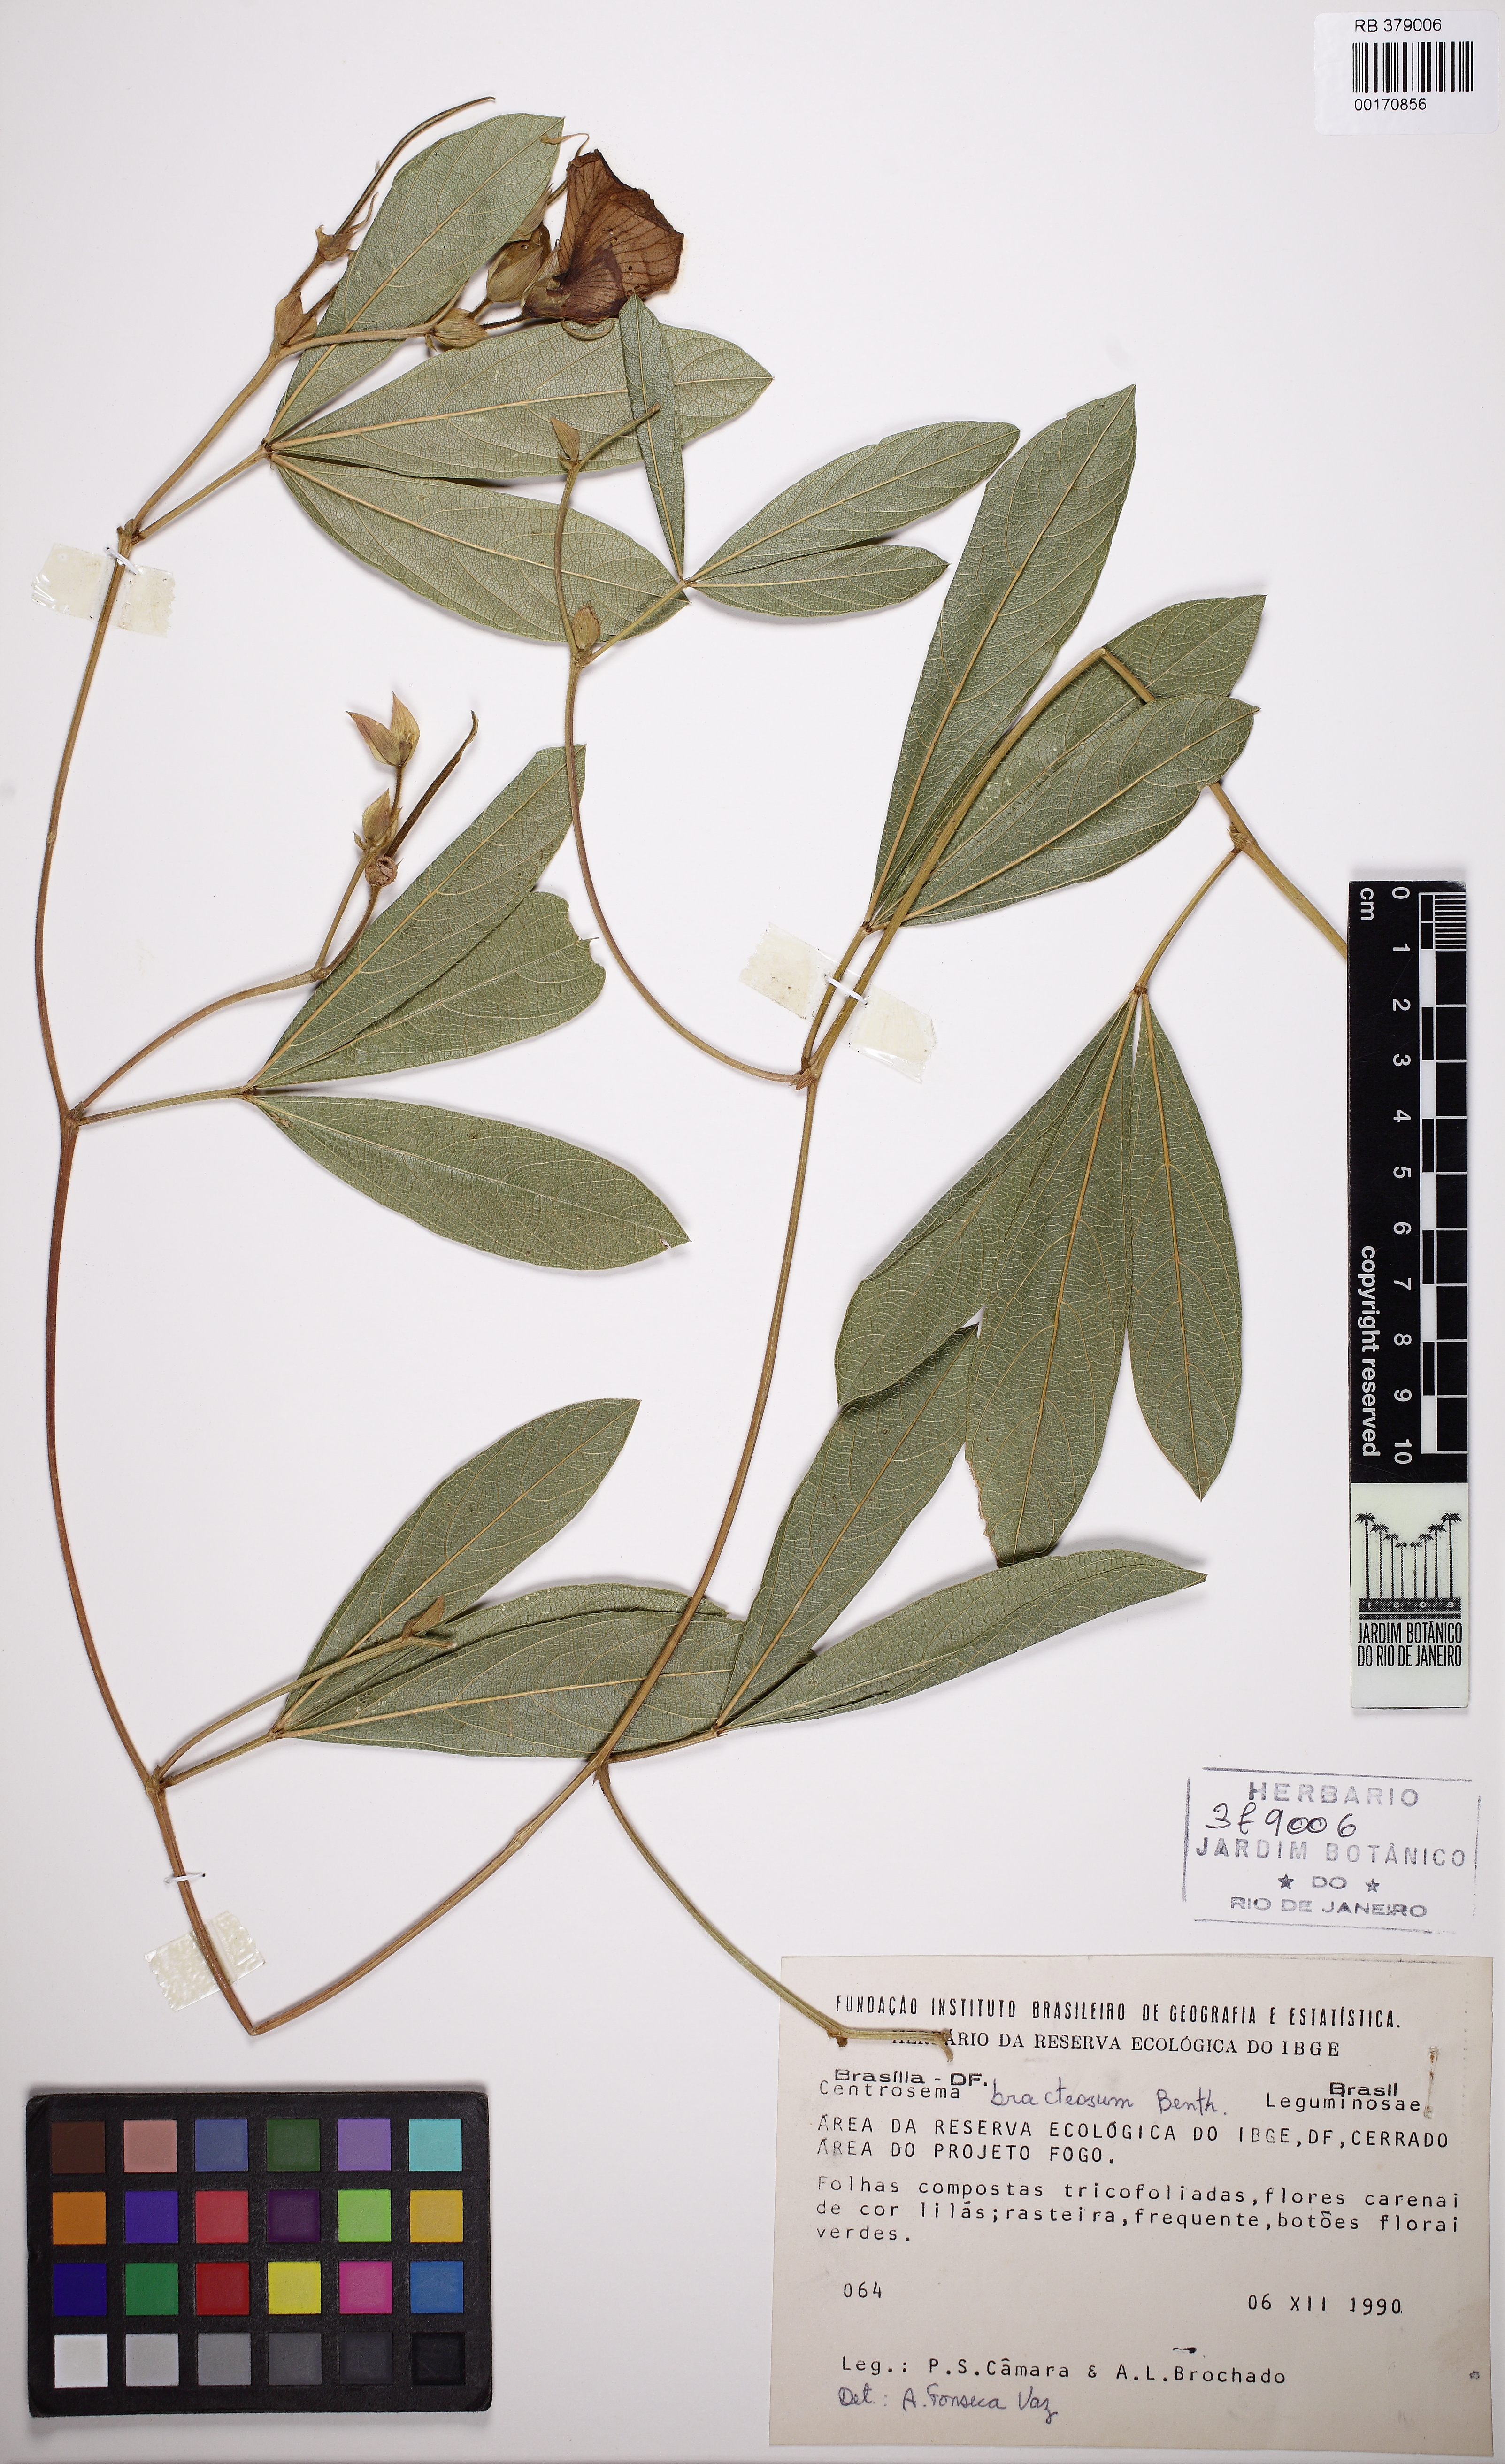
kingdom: Plantae
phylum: Tracheophyta
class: Magnoliopsida
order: Fabales
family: Fabaceae
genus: Centrosema
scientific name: Centrosema brachypodum
